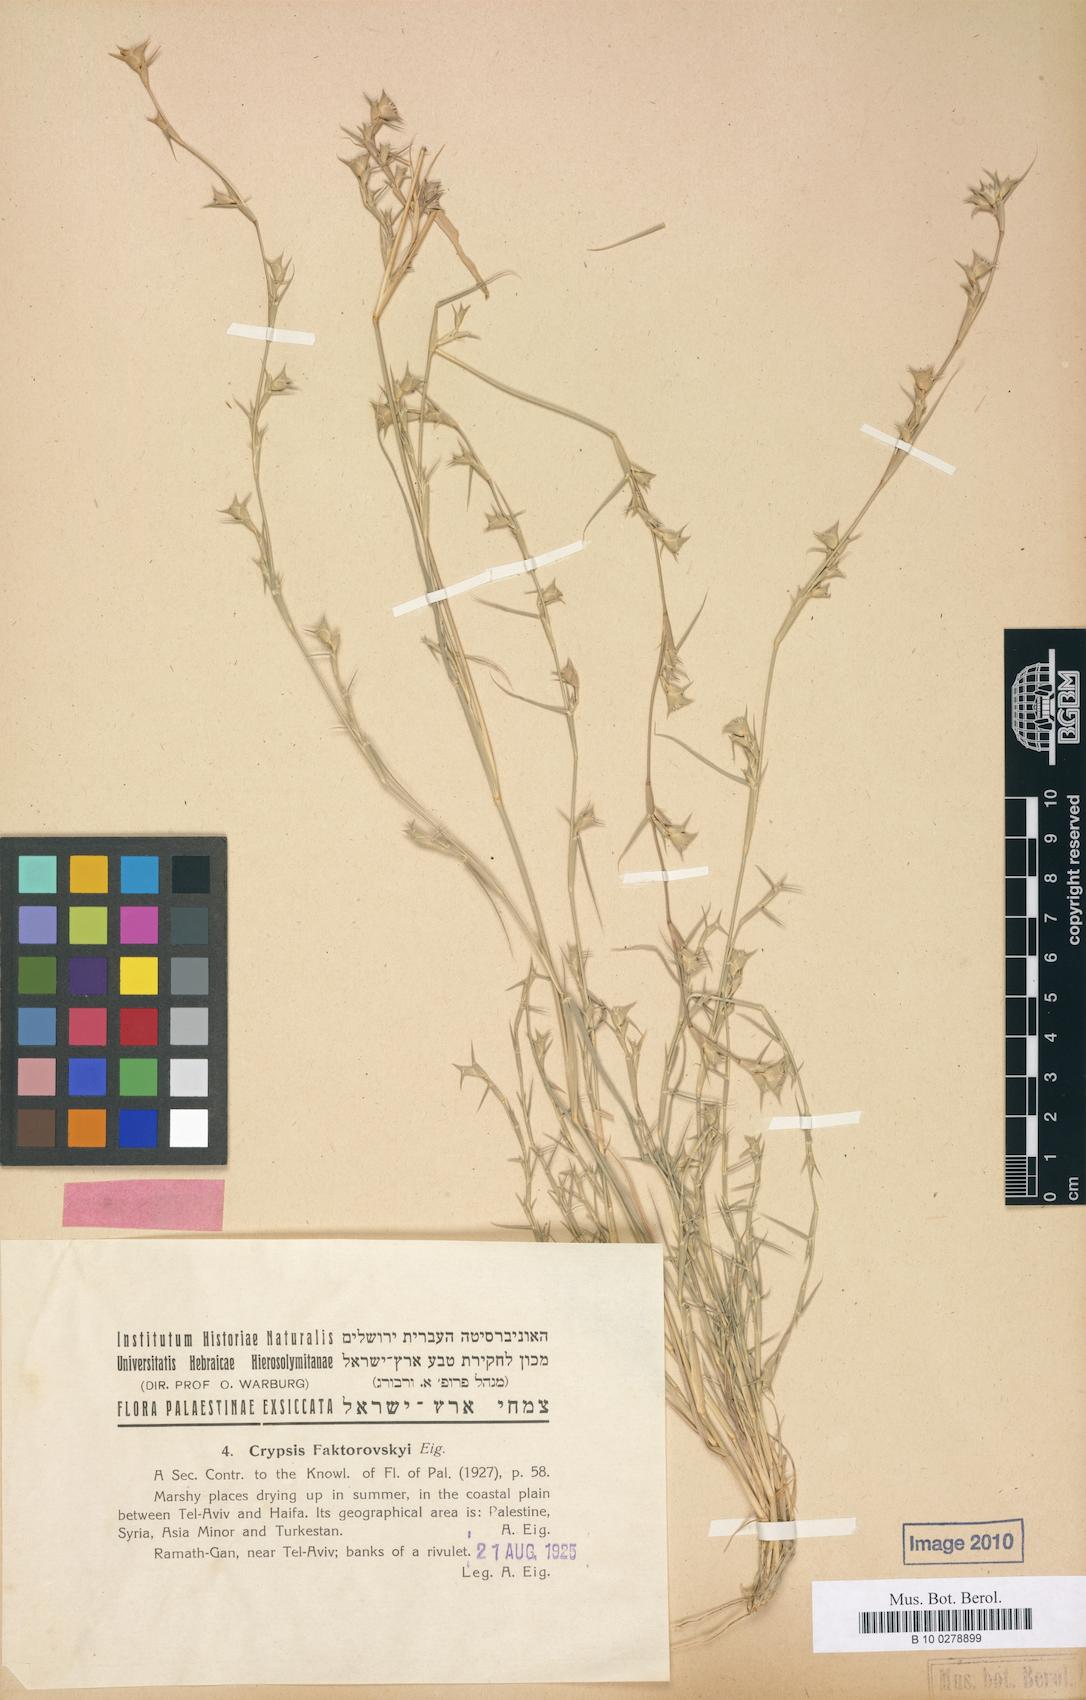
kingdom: Plantae
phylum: Tracheophyta
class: Liliopsida
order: Poales
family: Poaceae
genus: Sporobolus
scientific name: Sporobolus factorovskyi
